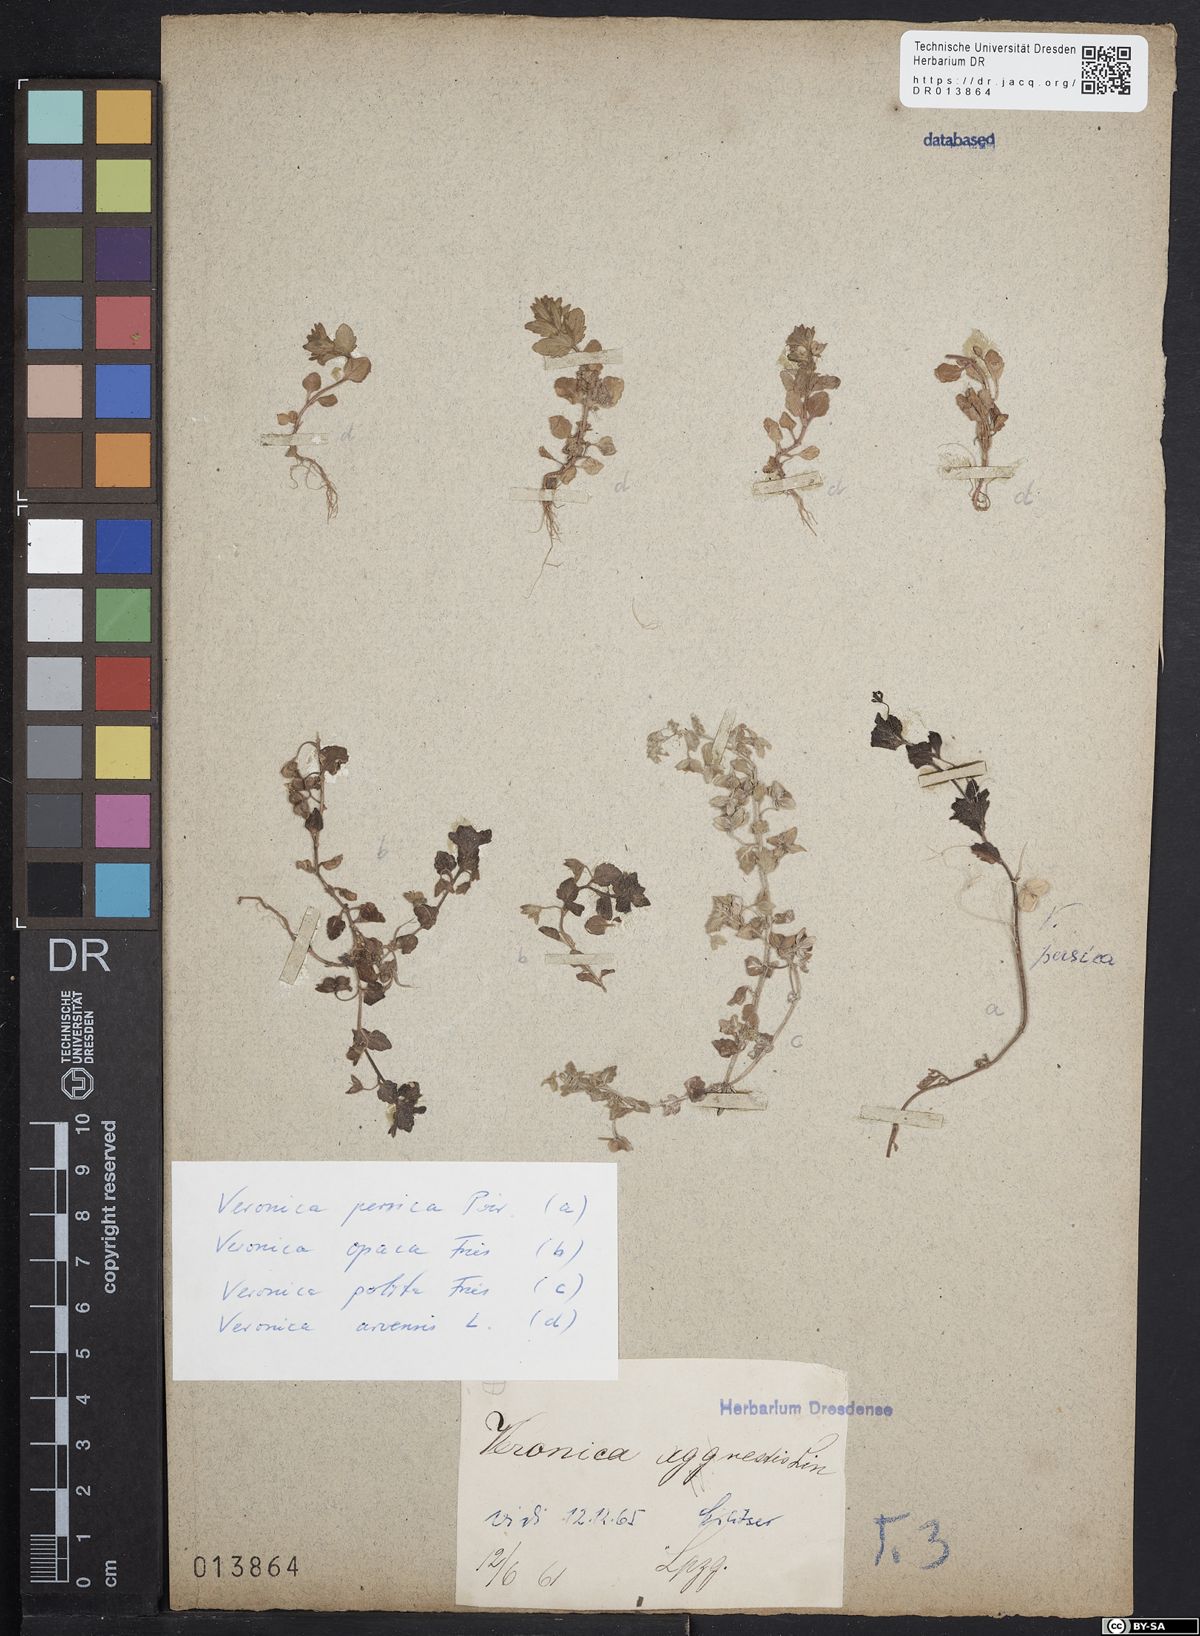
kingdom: Plantae
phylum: Tracheophyta
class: Magnoliopsida
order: Lamiales
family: Plantaginaceae
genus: Veronica
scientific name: Veronica opaca
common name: Dark speedwell
